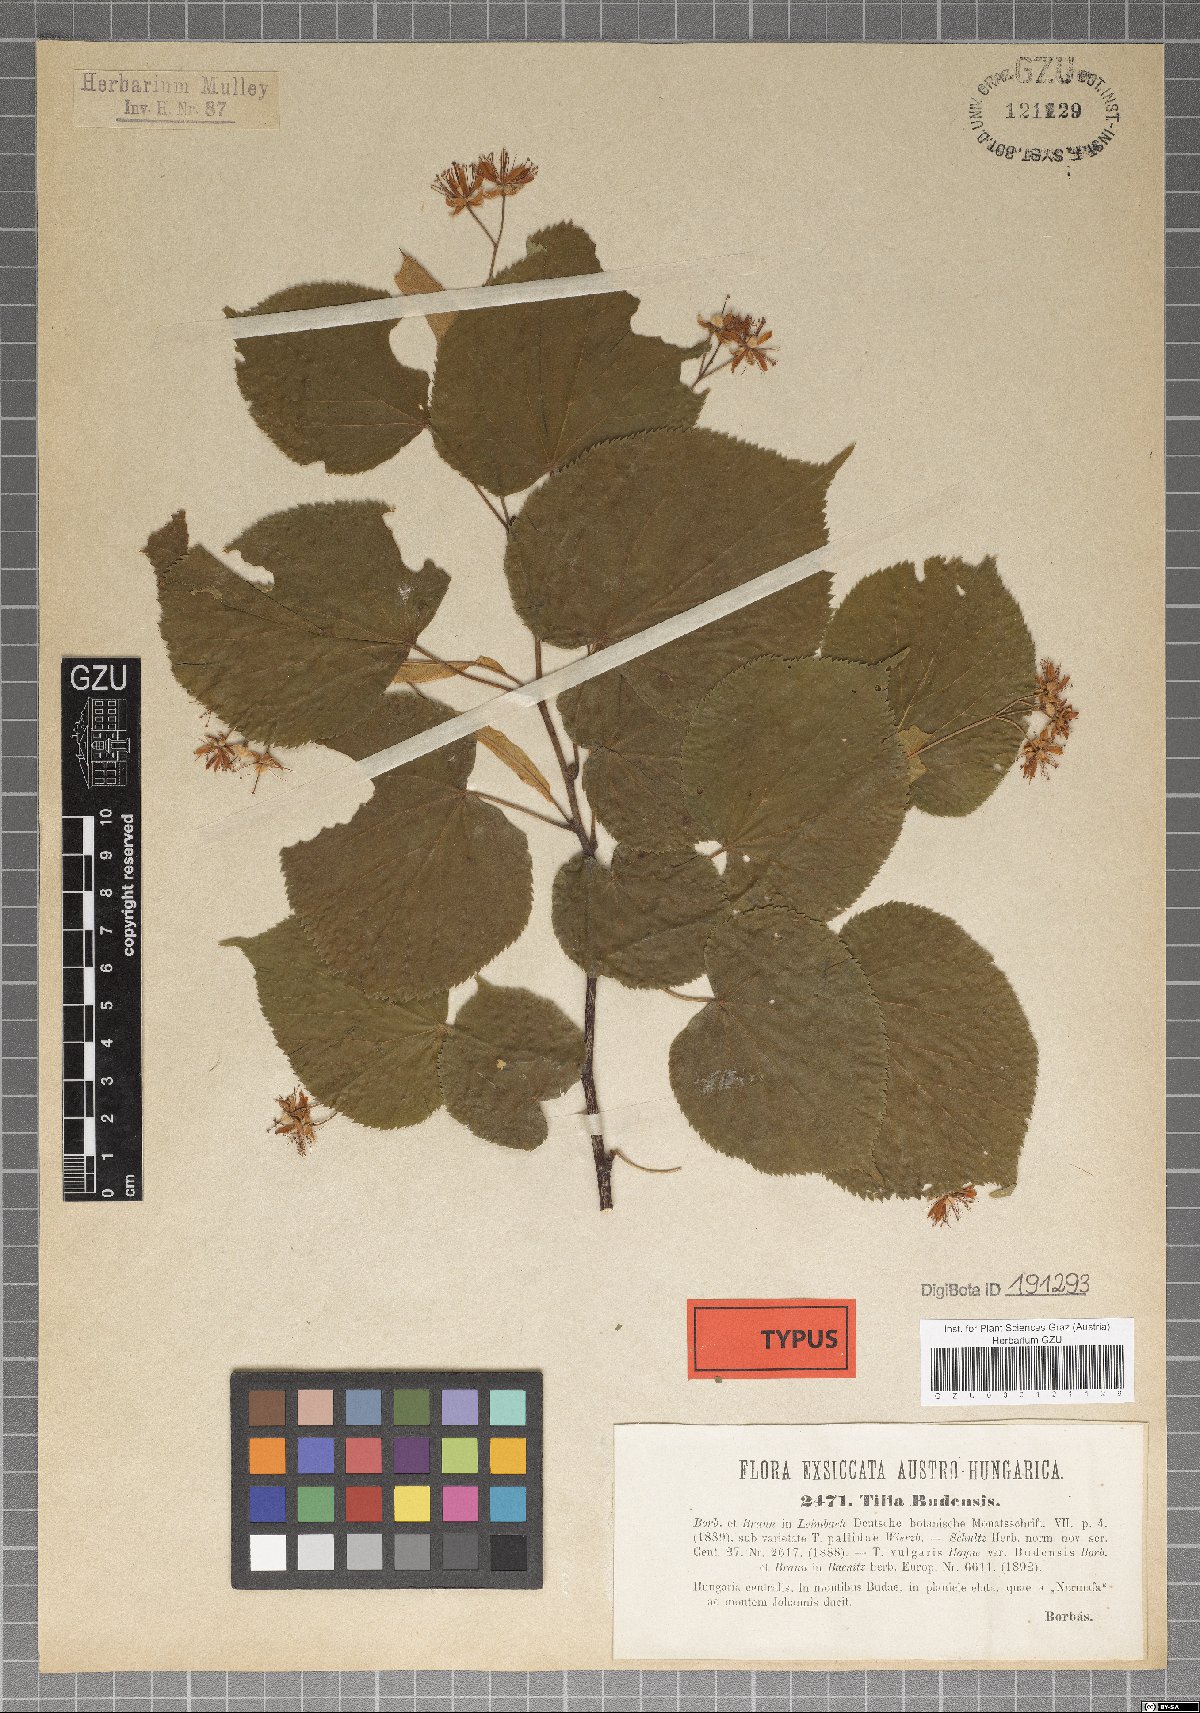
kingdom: Plantae
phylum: Tracheophyta
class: Magnoliopsida
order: Malvales
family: Malvaceae
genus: Tilia
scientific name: Tilia budensis
